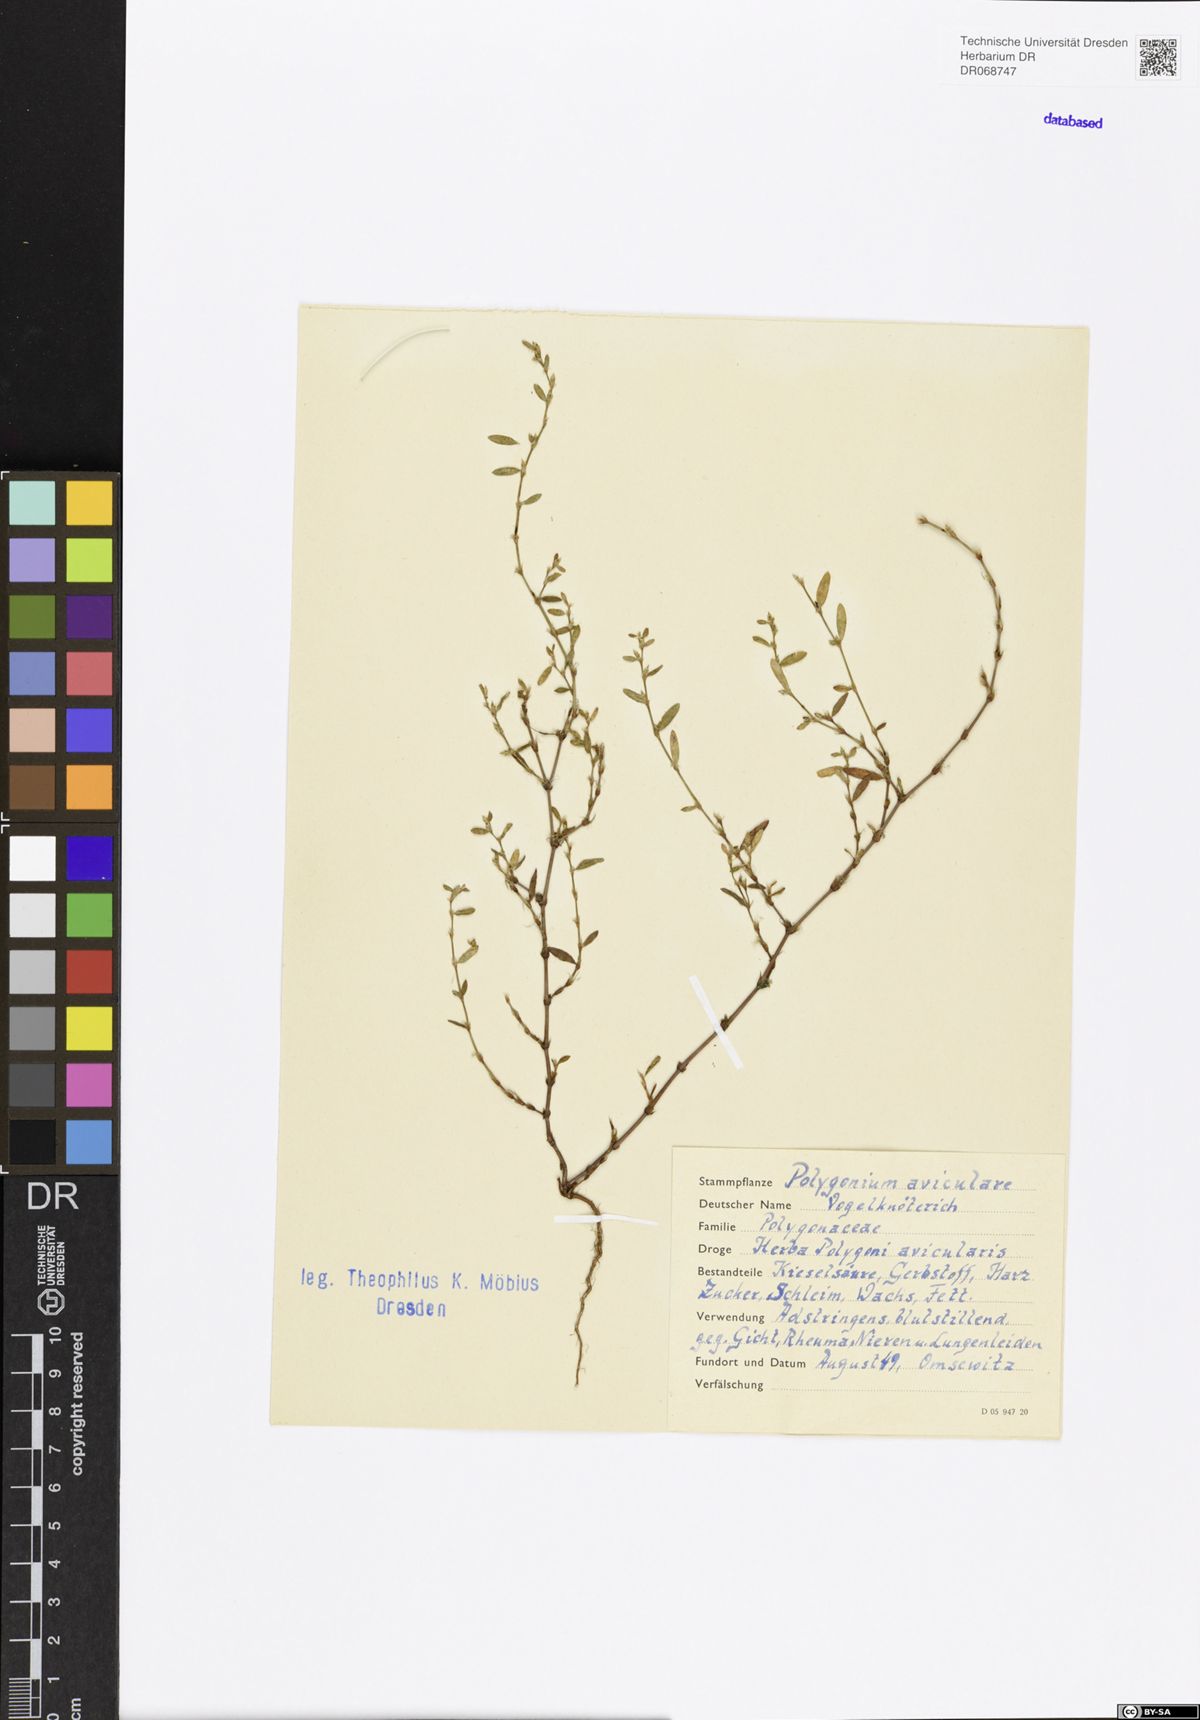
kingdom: Plantae
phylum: Tracheophyta
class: Magnoliopsida
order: Caryophyllales
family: Polygonaceae
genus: Polygonum
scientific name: Polygonum aviculare
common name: Prostrate knotweed
